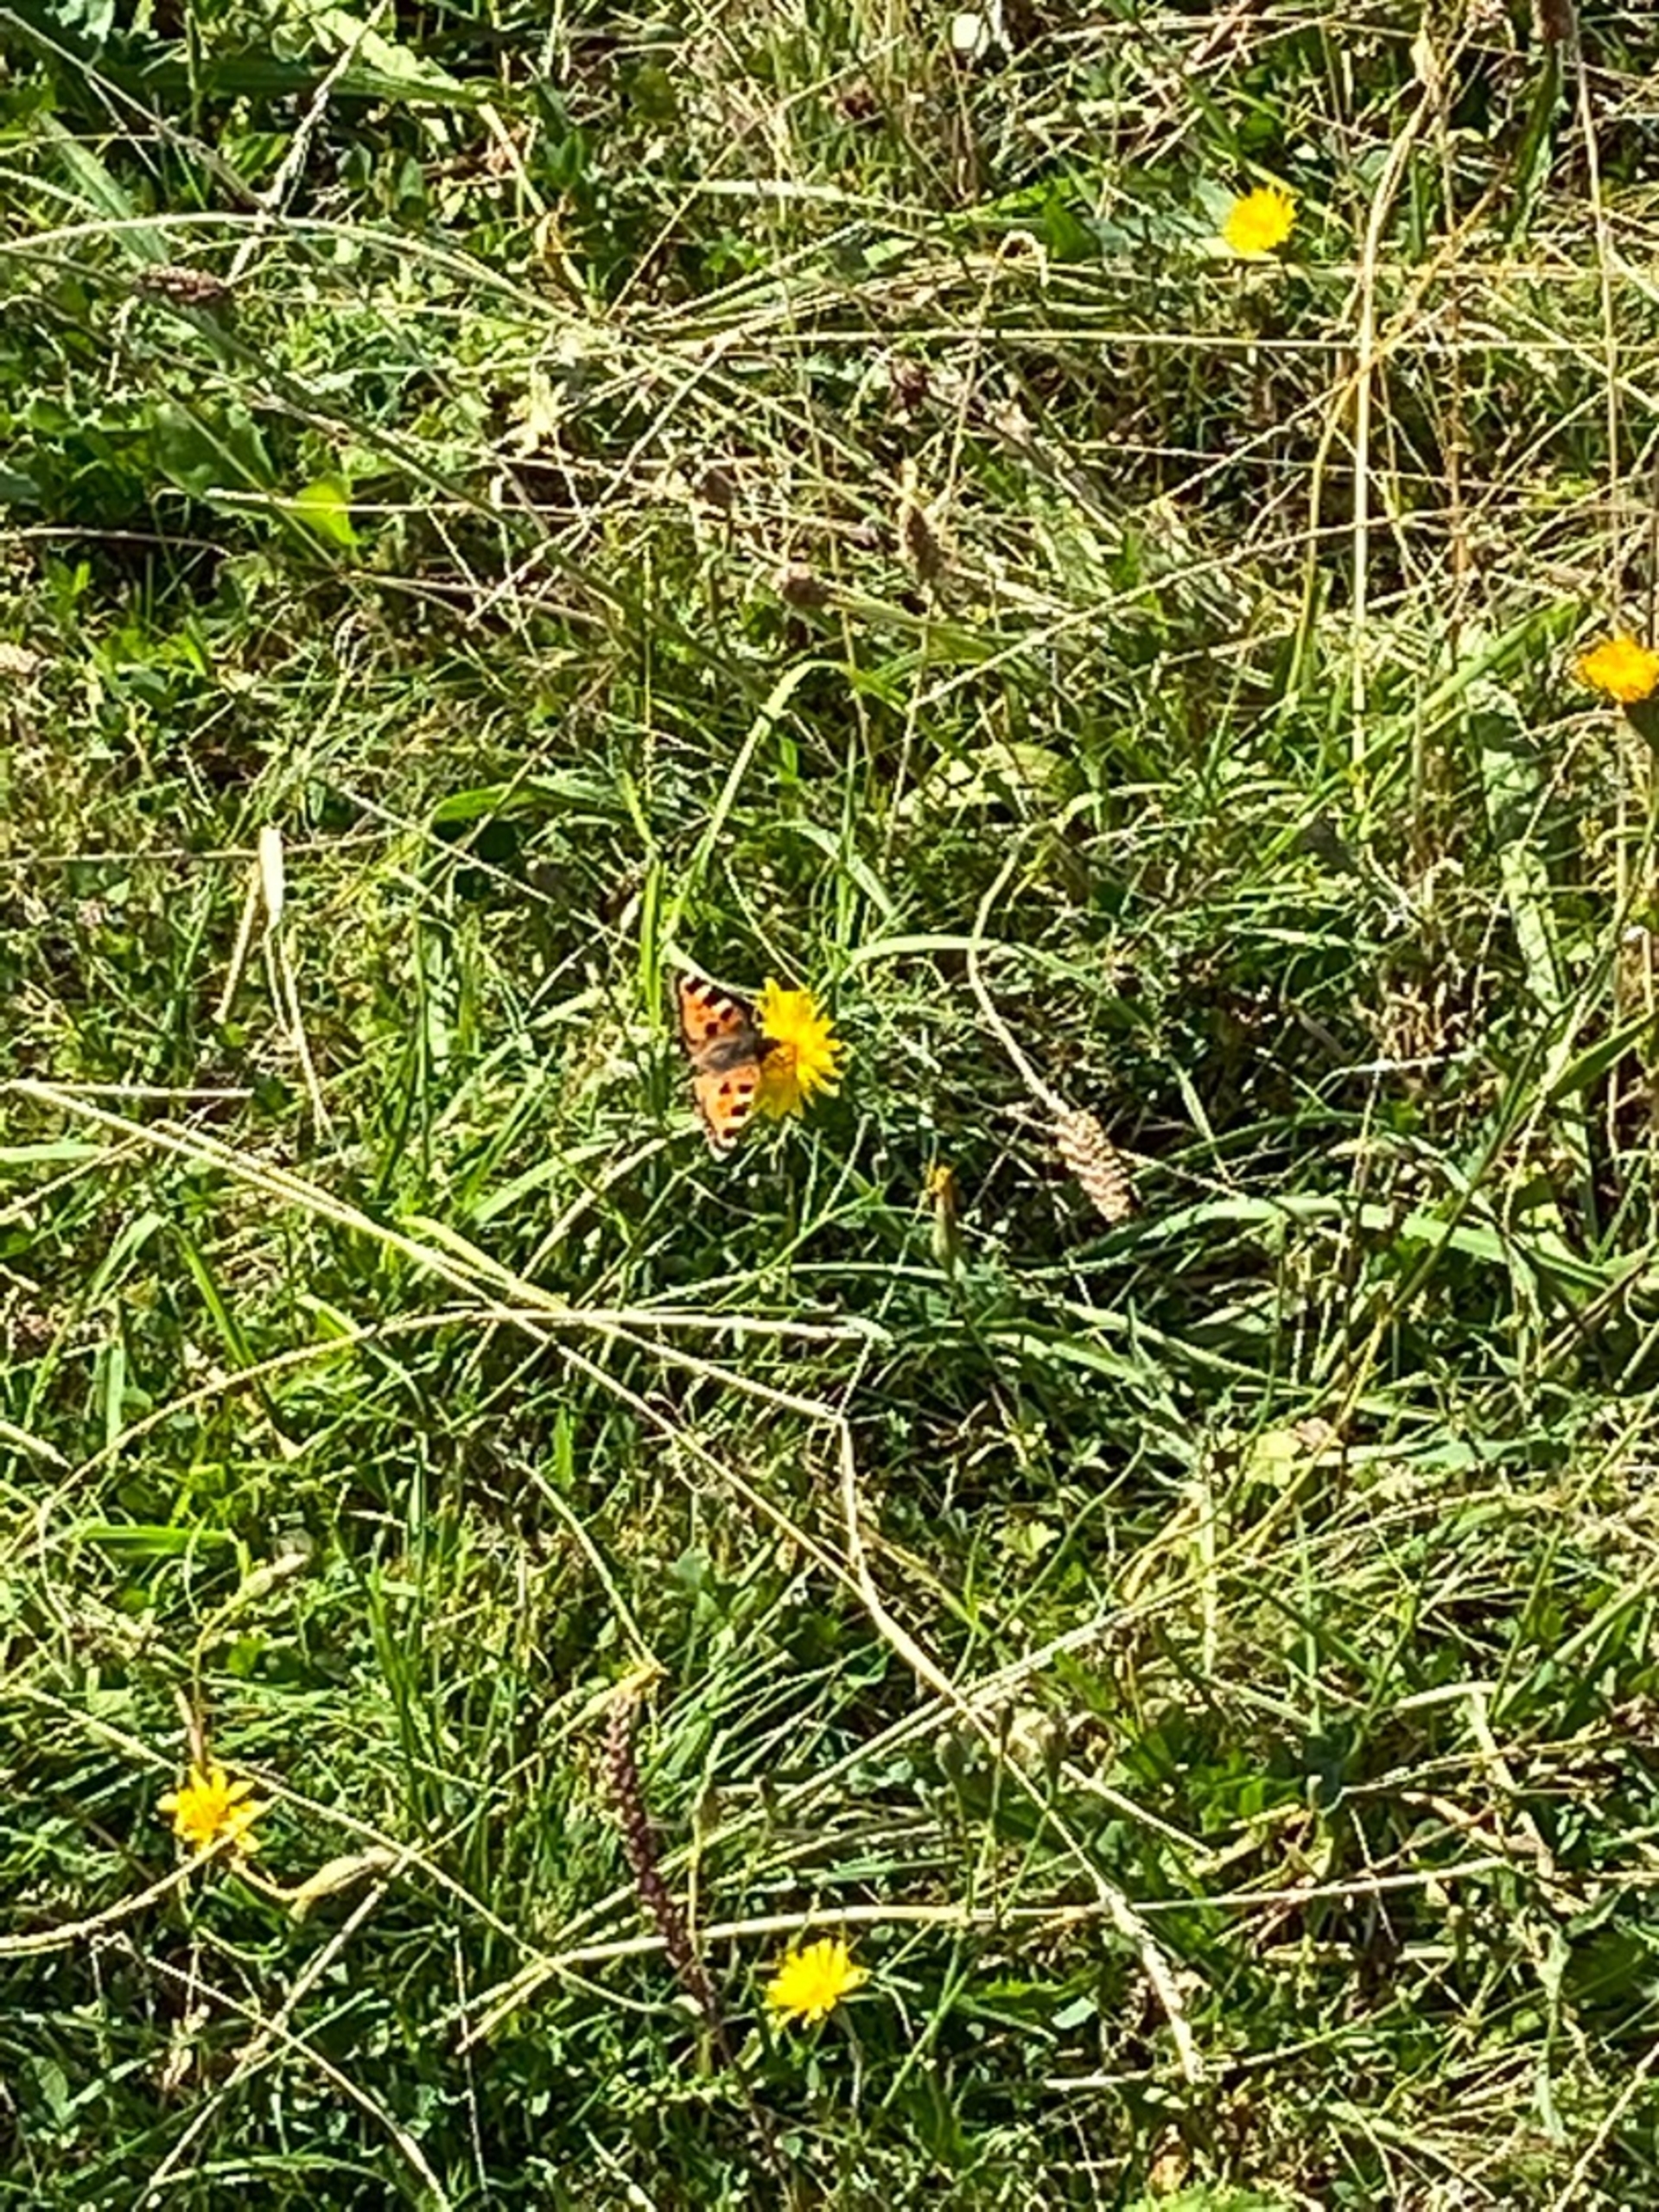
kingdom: Animalia
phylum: Arthropoda
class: Insecta
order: Lepidoptera
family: Nymphalidae
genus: Aglais
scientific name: Aglais urticae
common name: Nældens takvinge
